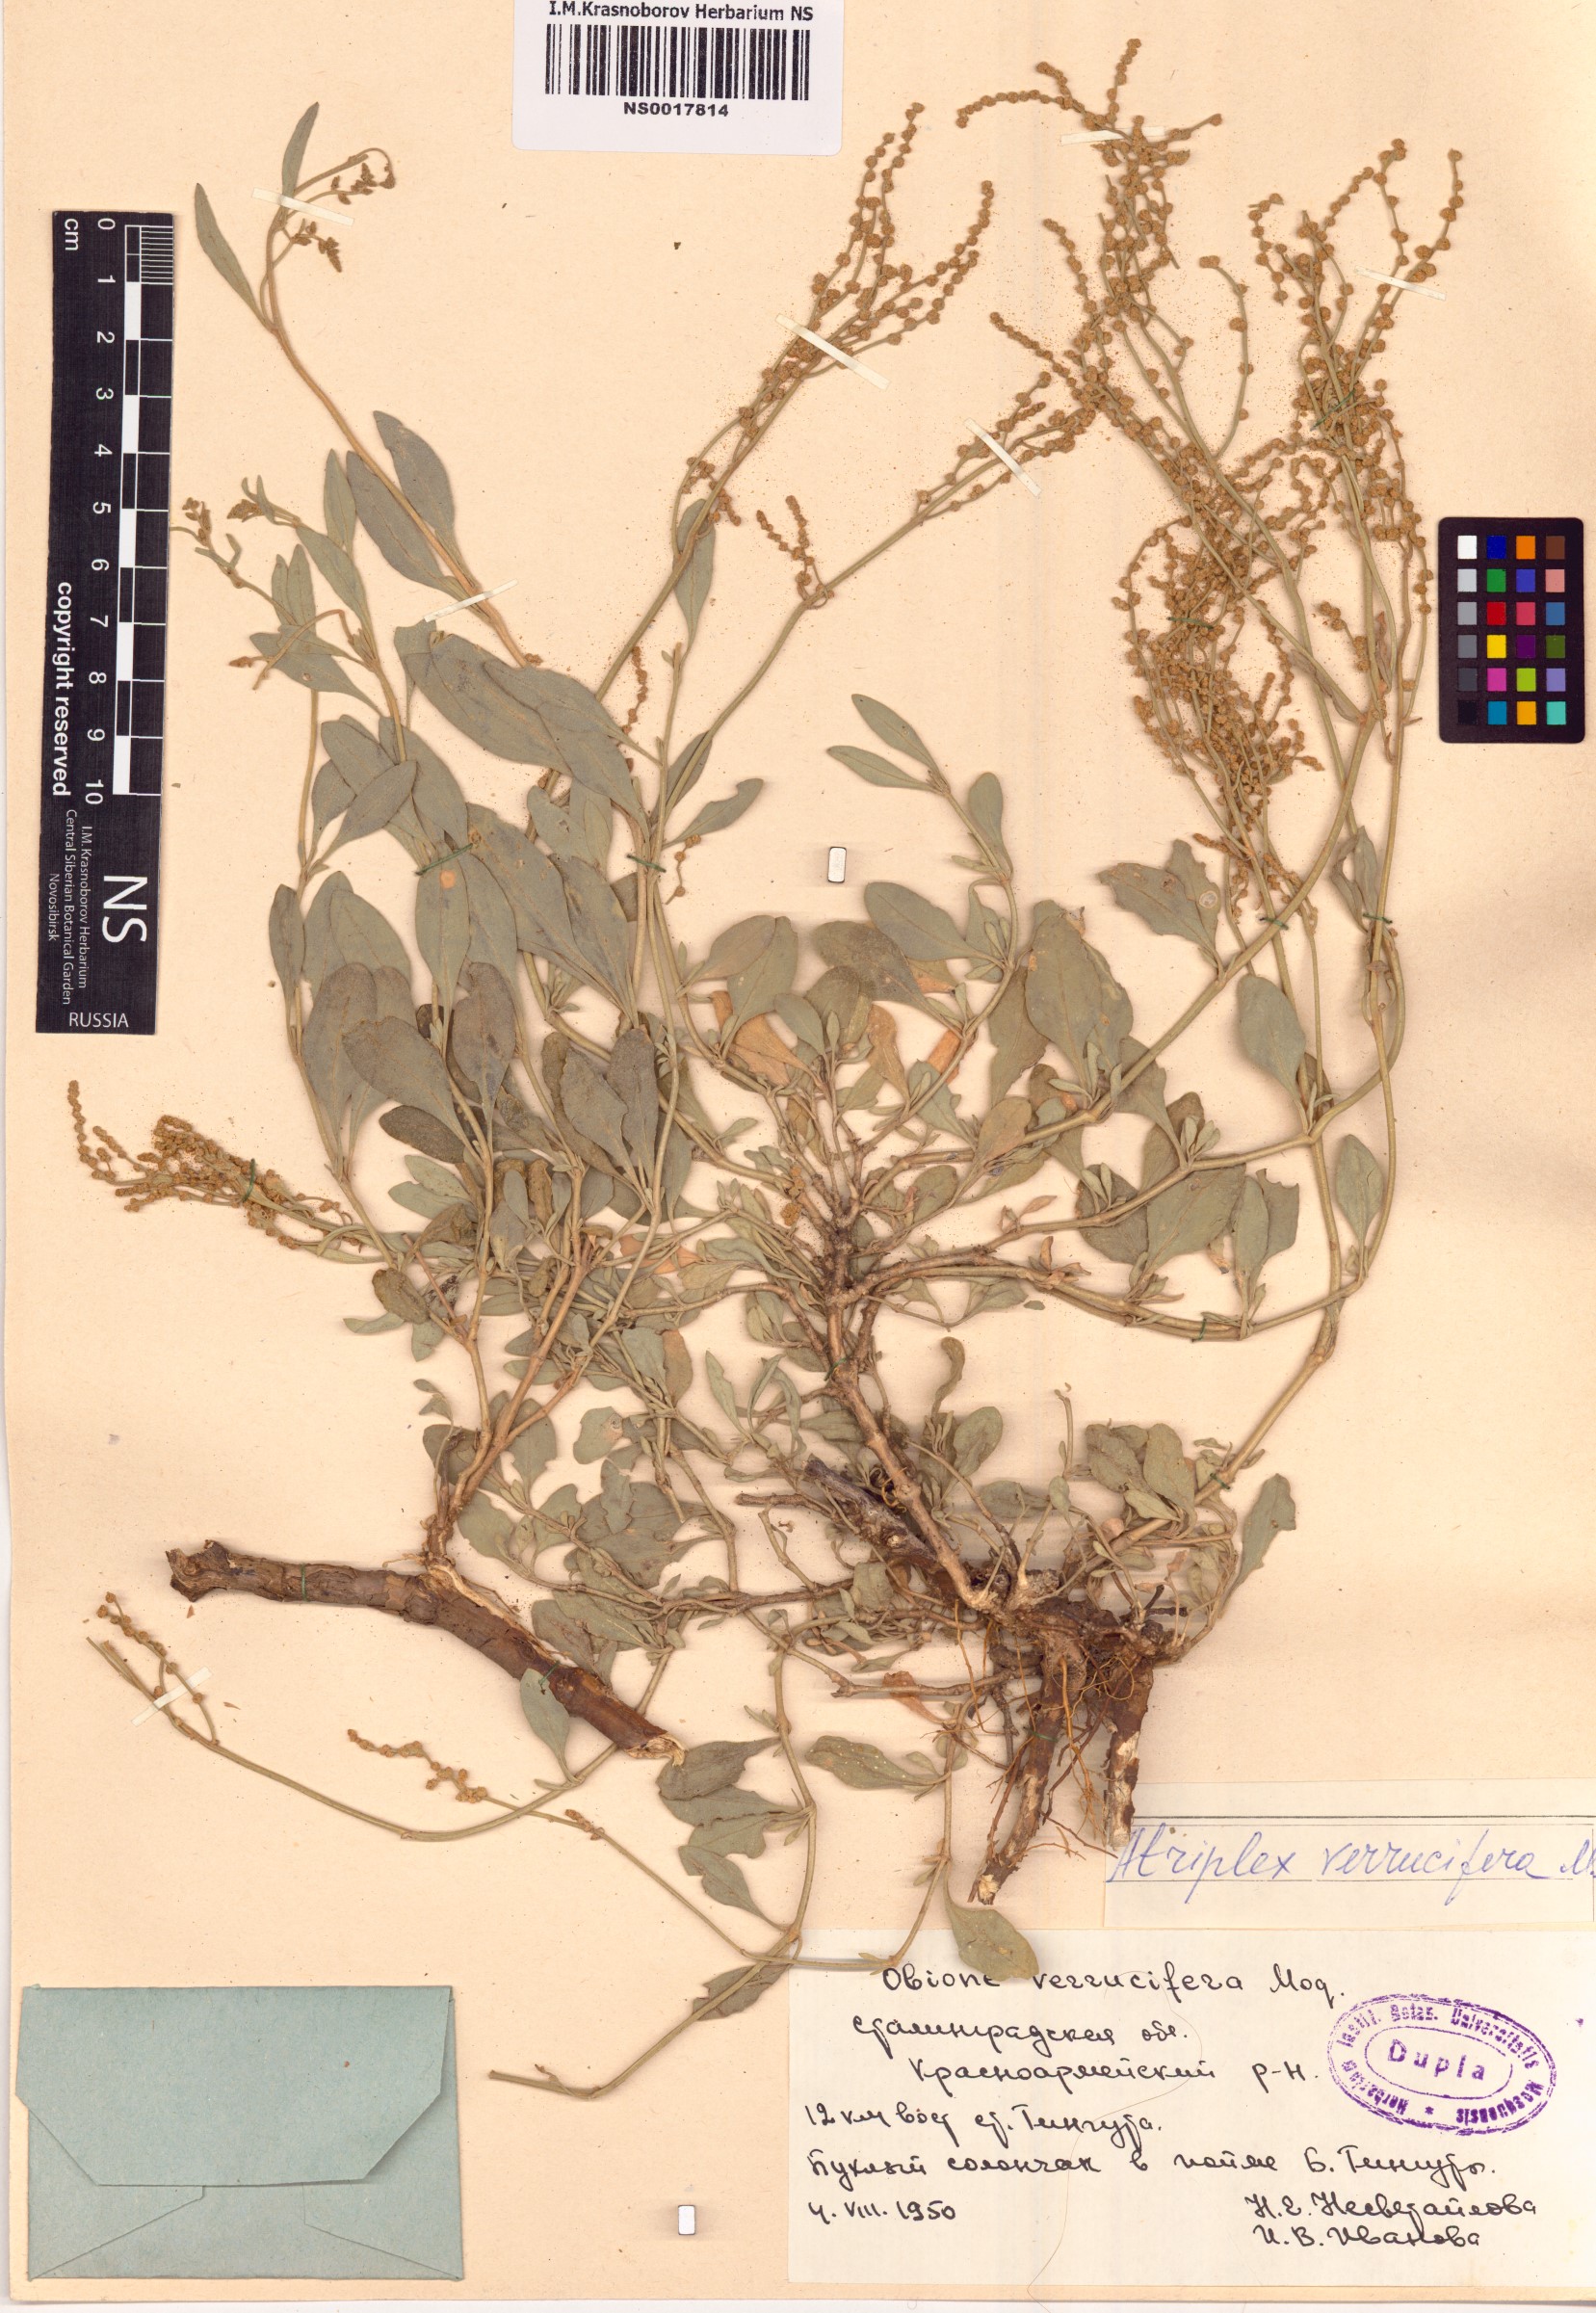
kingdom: Plantae
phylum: Tracheophyta
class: Magnoliopsida
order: Caryophyllales
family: Amaranthaceae
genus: Halimione
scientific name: Halimione verrucifera
